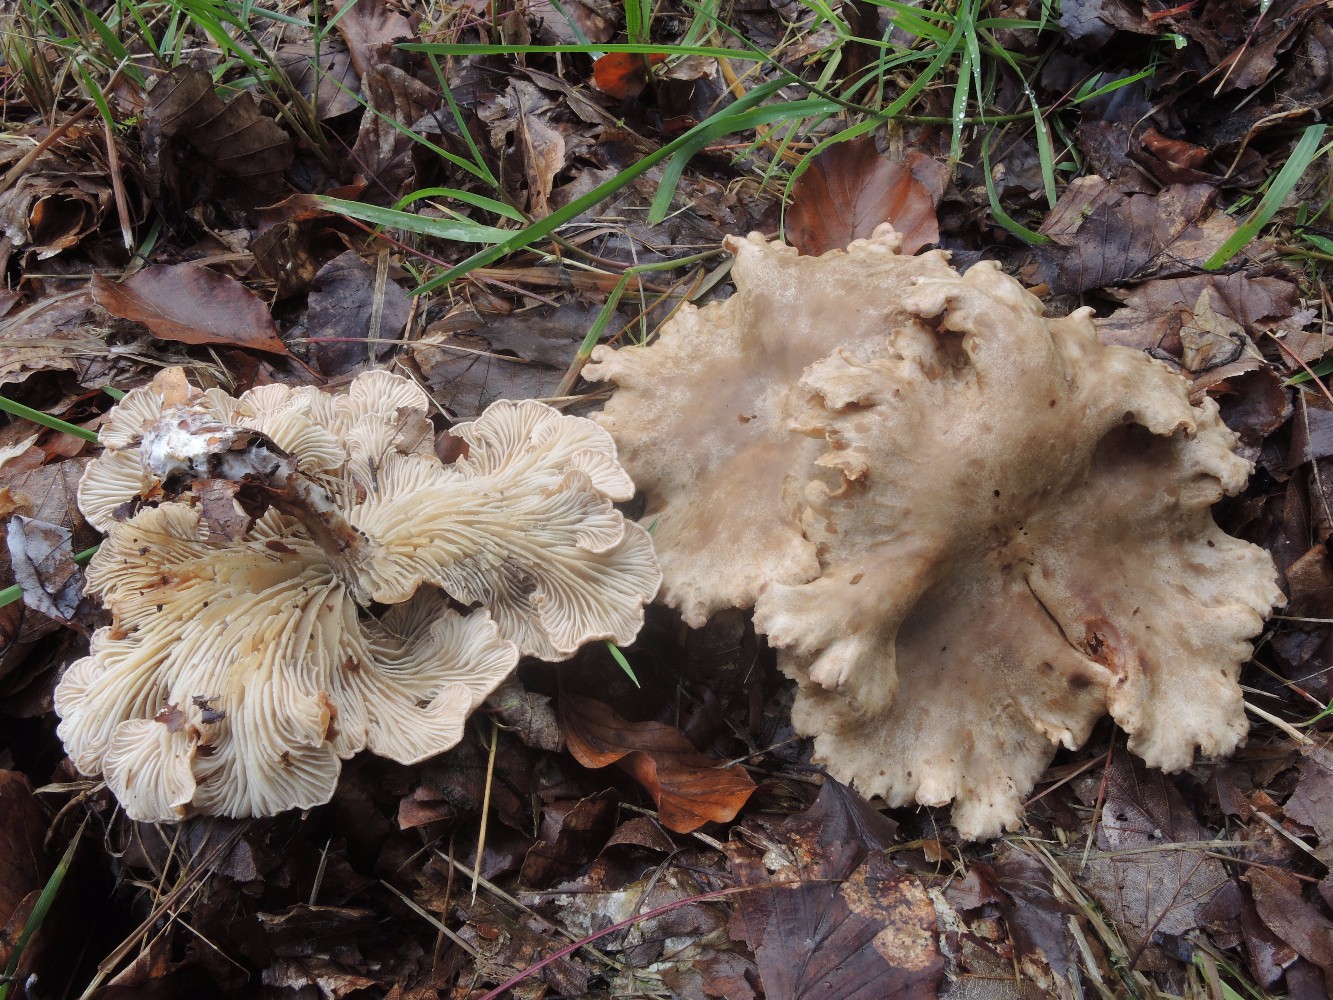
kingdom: Fungi
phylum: Basidiomycota
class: Agaricomycetes
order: Agaricales
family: Tricholomataceae
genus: Infundibulicybe
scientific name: Infundibulicybe alkaliviolascens
